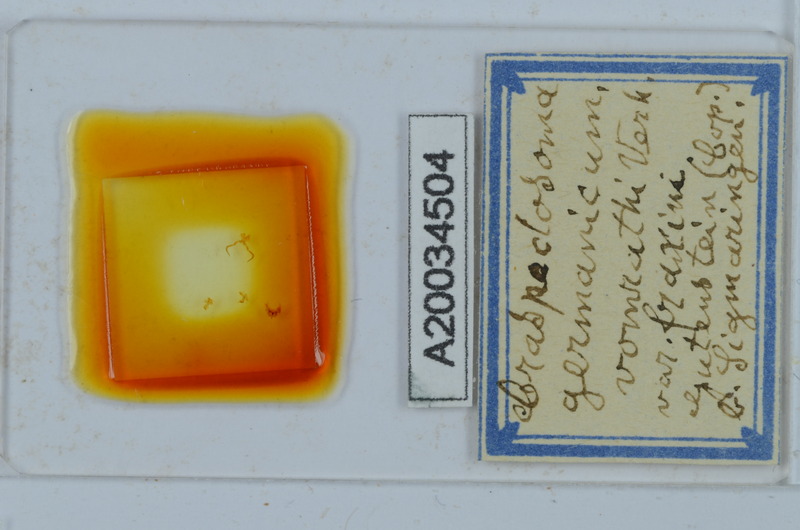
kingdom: Animalia
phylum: Arthropoda
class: Diplopoda
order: Chordeumatida
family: Craspedosomatidae
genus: Craspedosoma
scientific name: Craspedosoma rawlinsii
